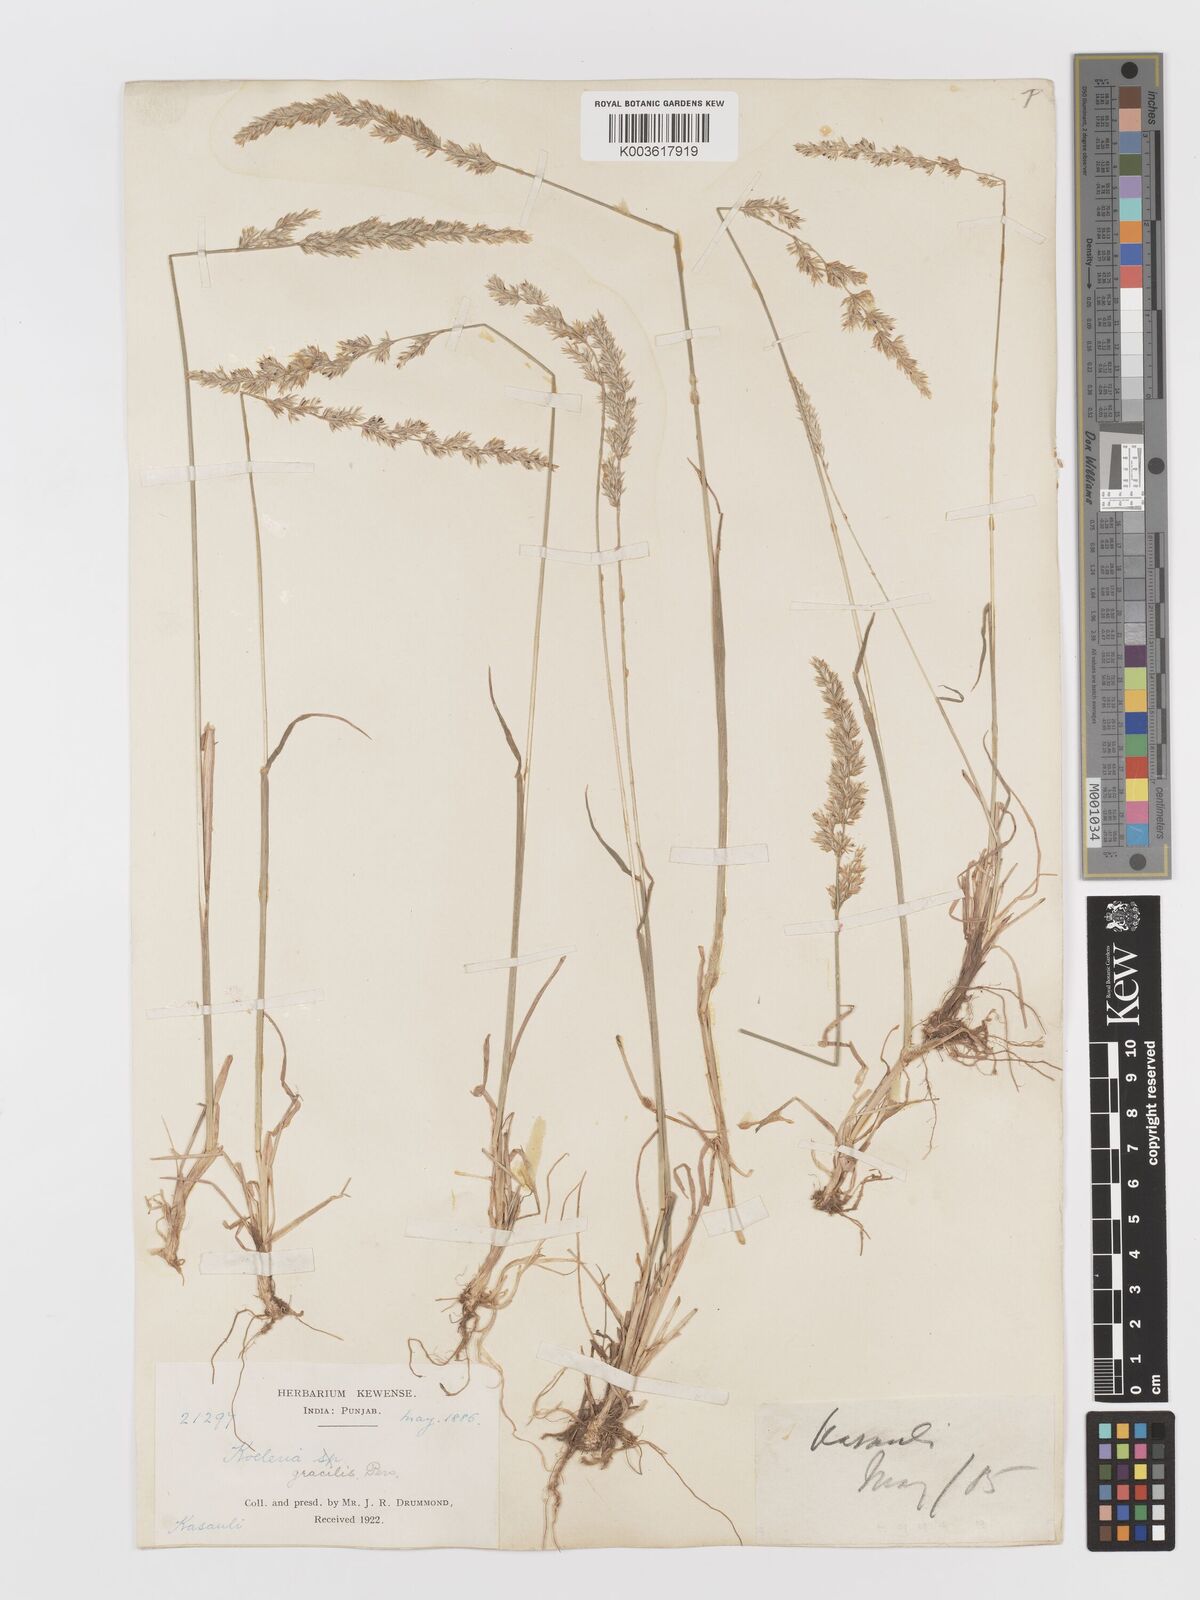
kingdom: Plantae
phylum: Tracheophyta
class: Liliopsida
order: Poales
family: Poaceae
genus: Koeleria
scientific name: Koeleria
